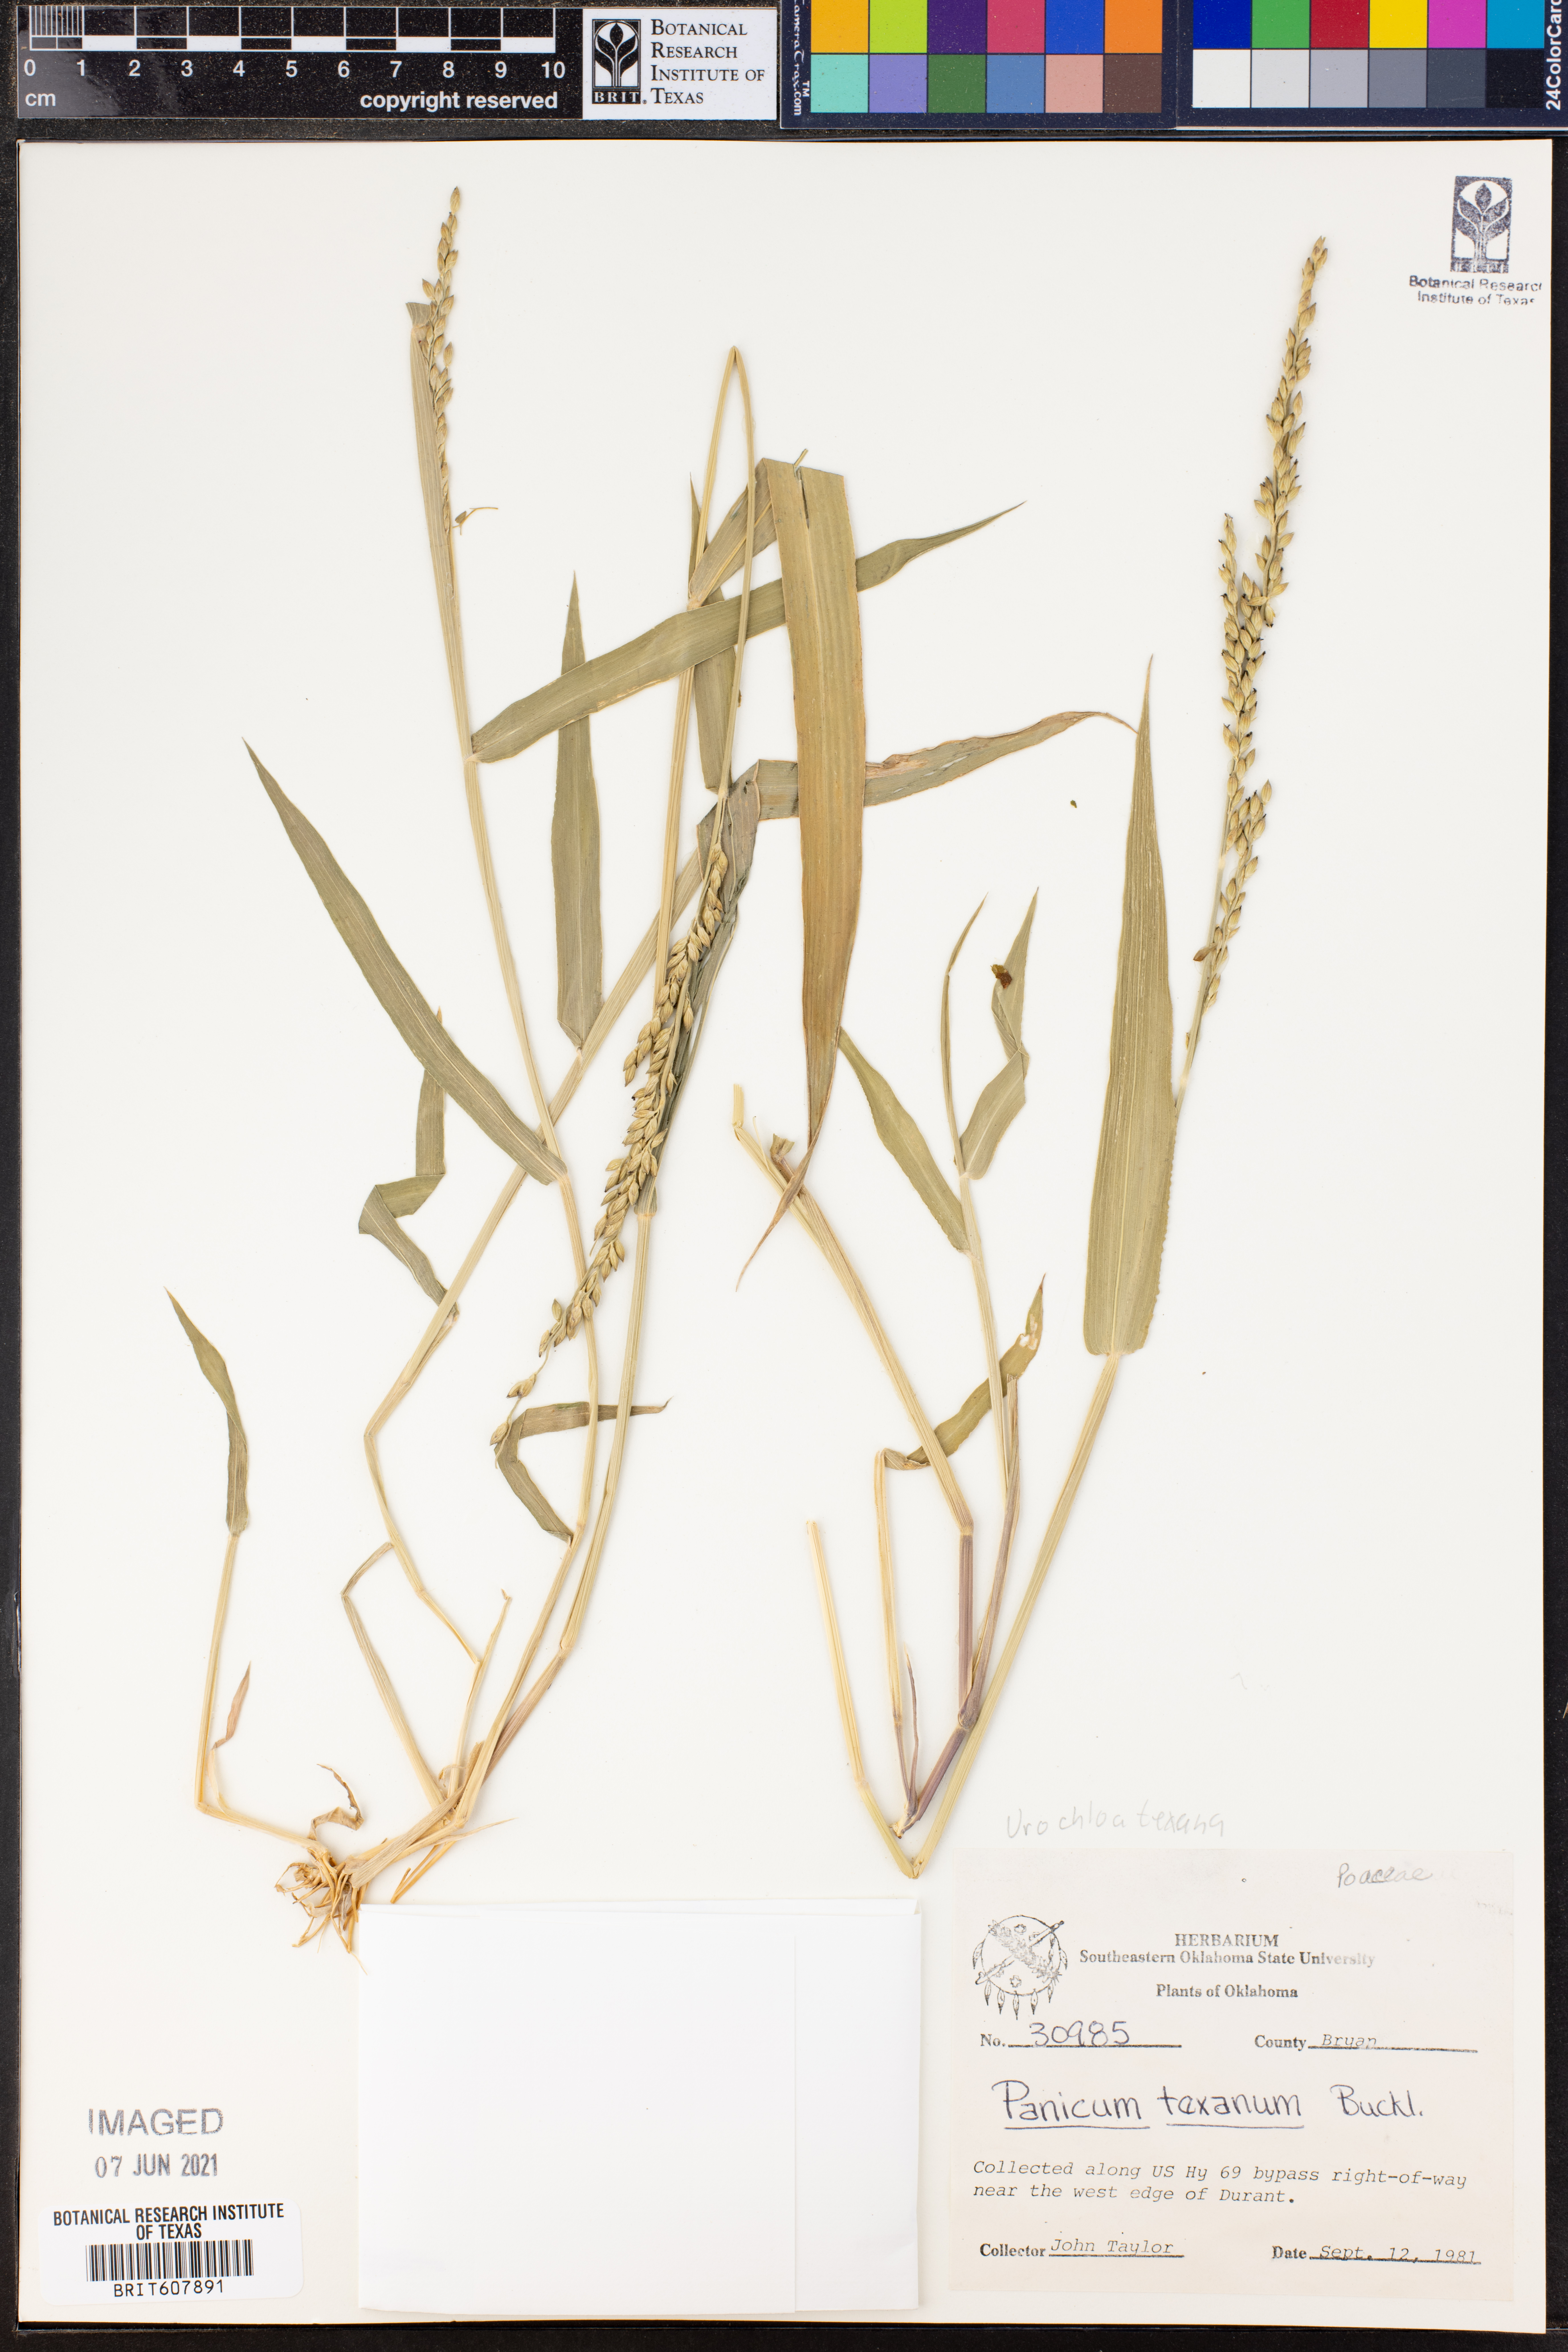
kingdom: Plantae
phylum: Tracheophyta
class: Liliopsida
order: Poales
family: Poaceae
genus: Urochloa
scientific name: Urochloa texana
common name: Texas millet
